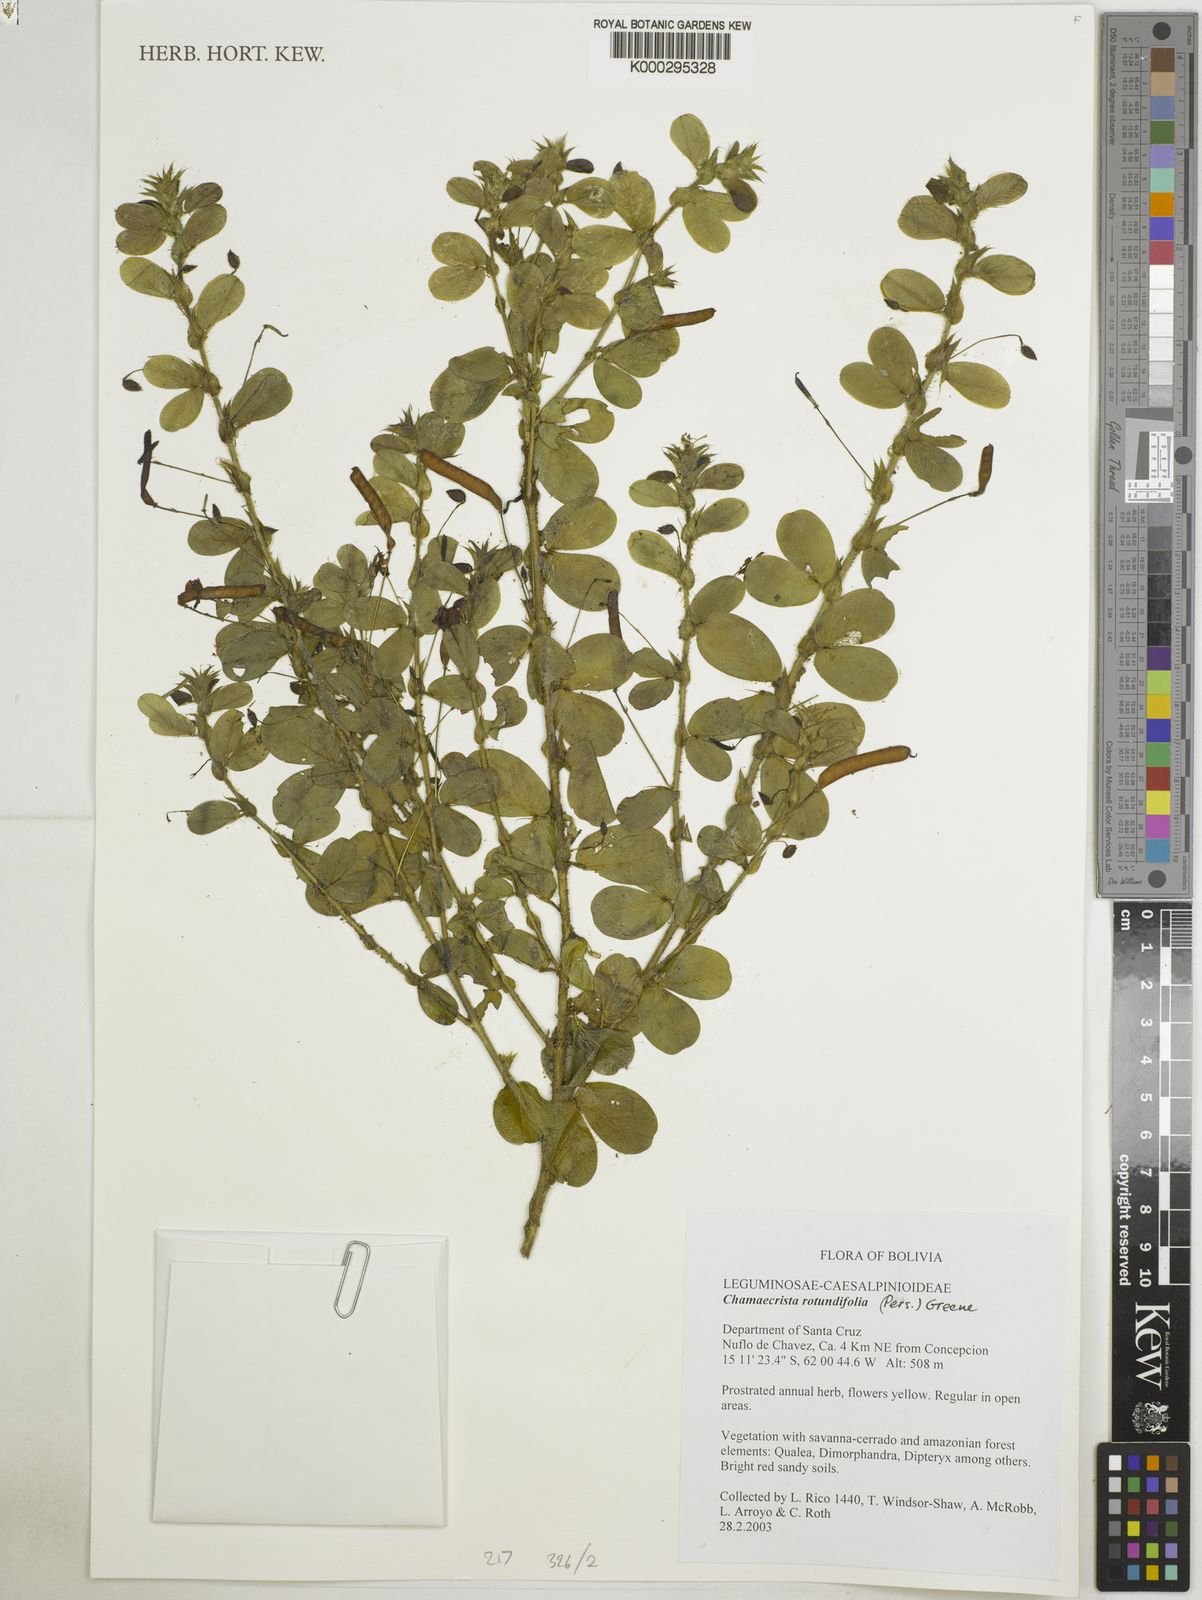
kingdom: Plantae
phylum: Tracheophyta
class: Magnoliopsida
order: Fabales
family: Fabaceae
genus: Chamaecrista
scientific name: Chamaecrista rotundifolia
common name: Round-leaf cassia
